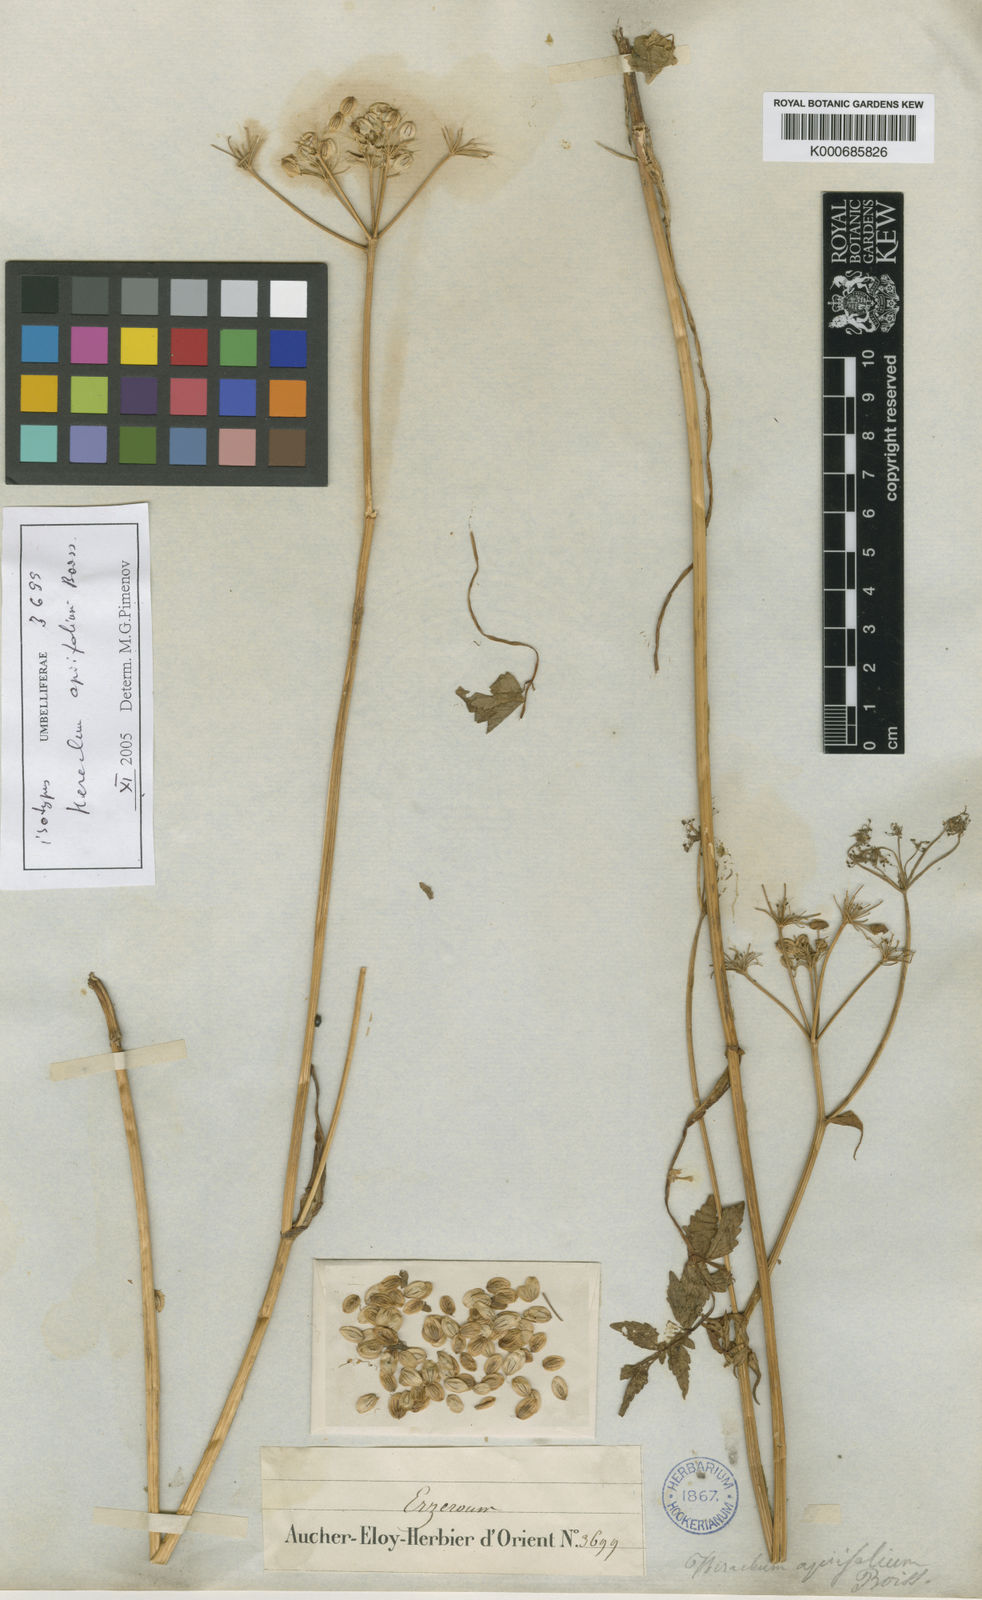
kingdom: Plantae
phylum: Tracheophyta
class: Magnoliopsida
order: Apiales
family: Apiaceae
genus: Heracleum
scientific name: Heracleum apiifolium
